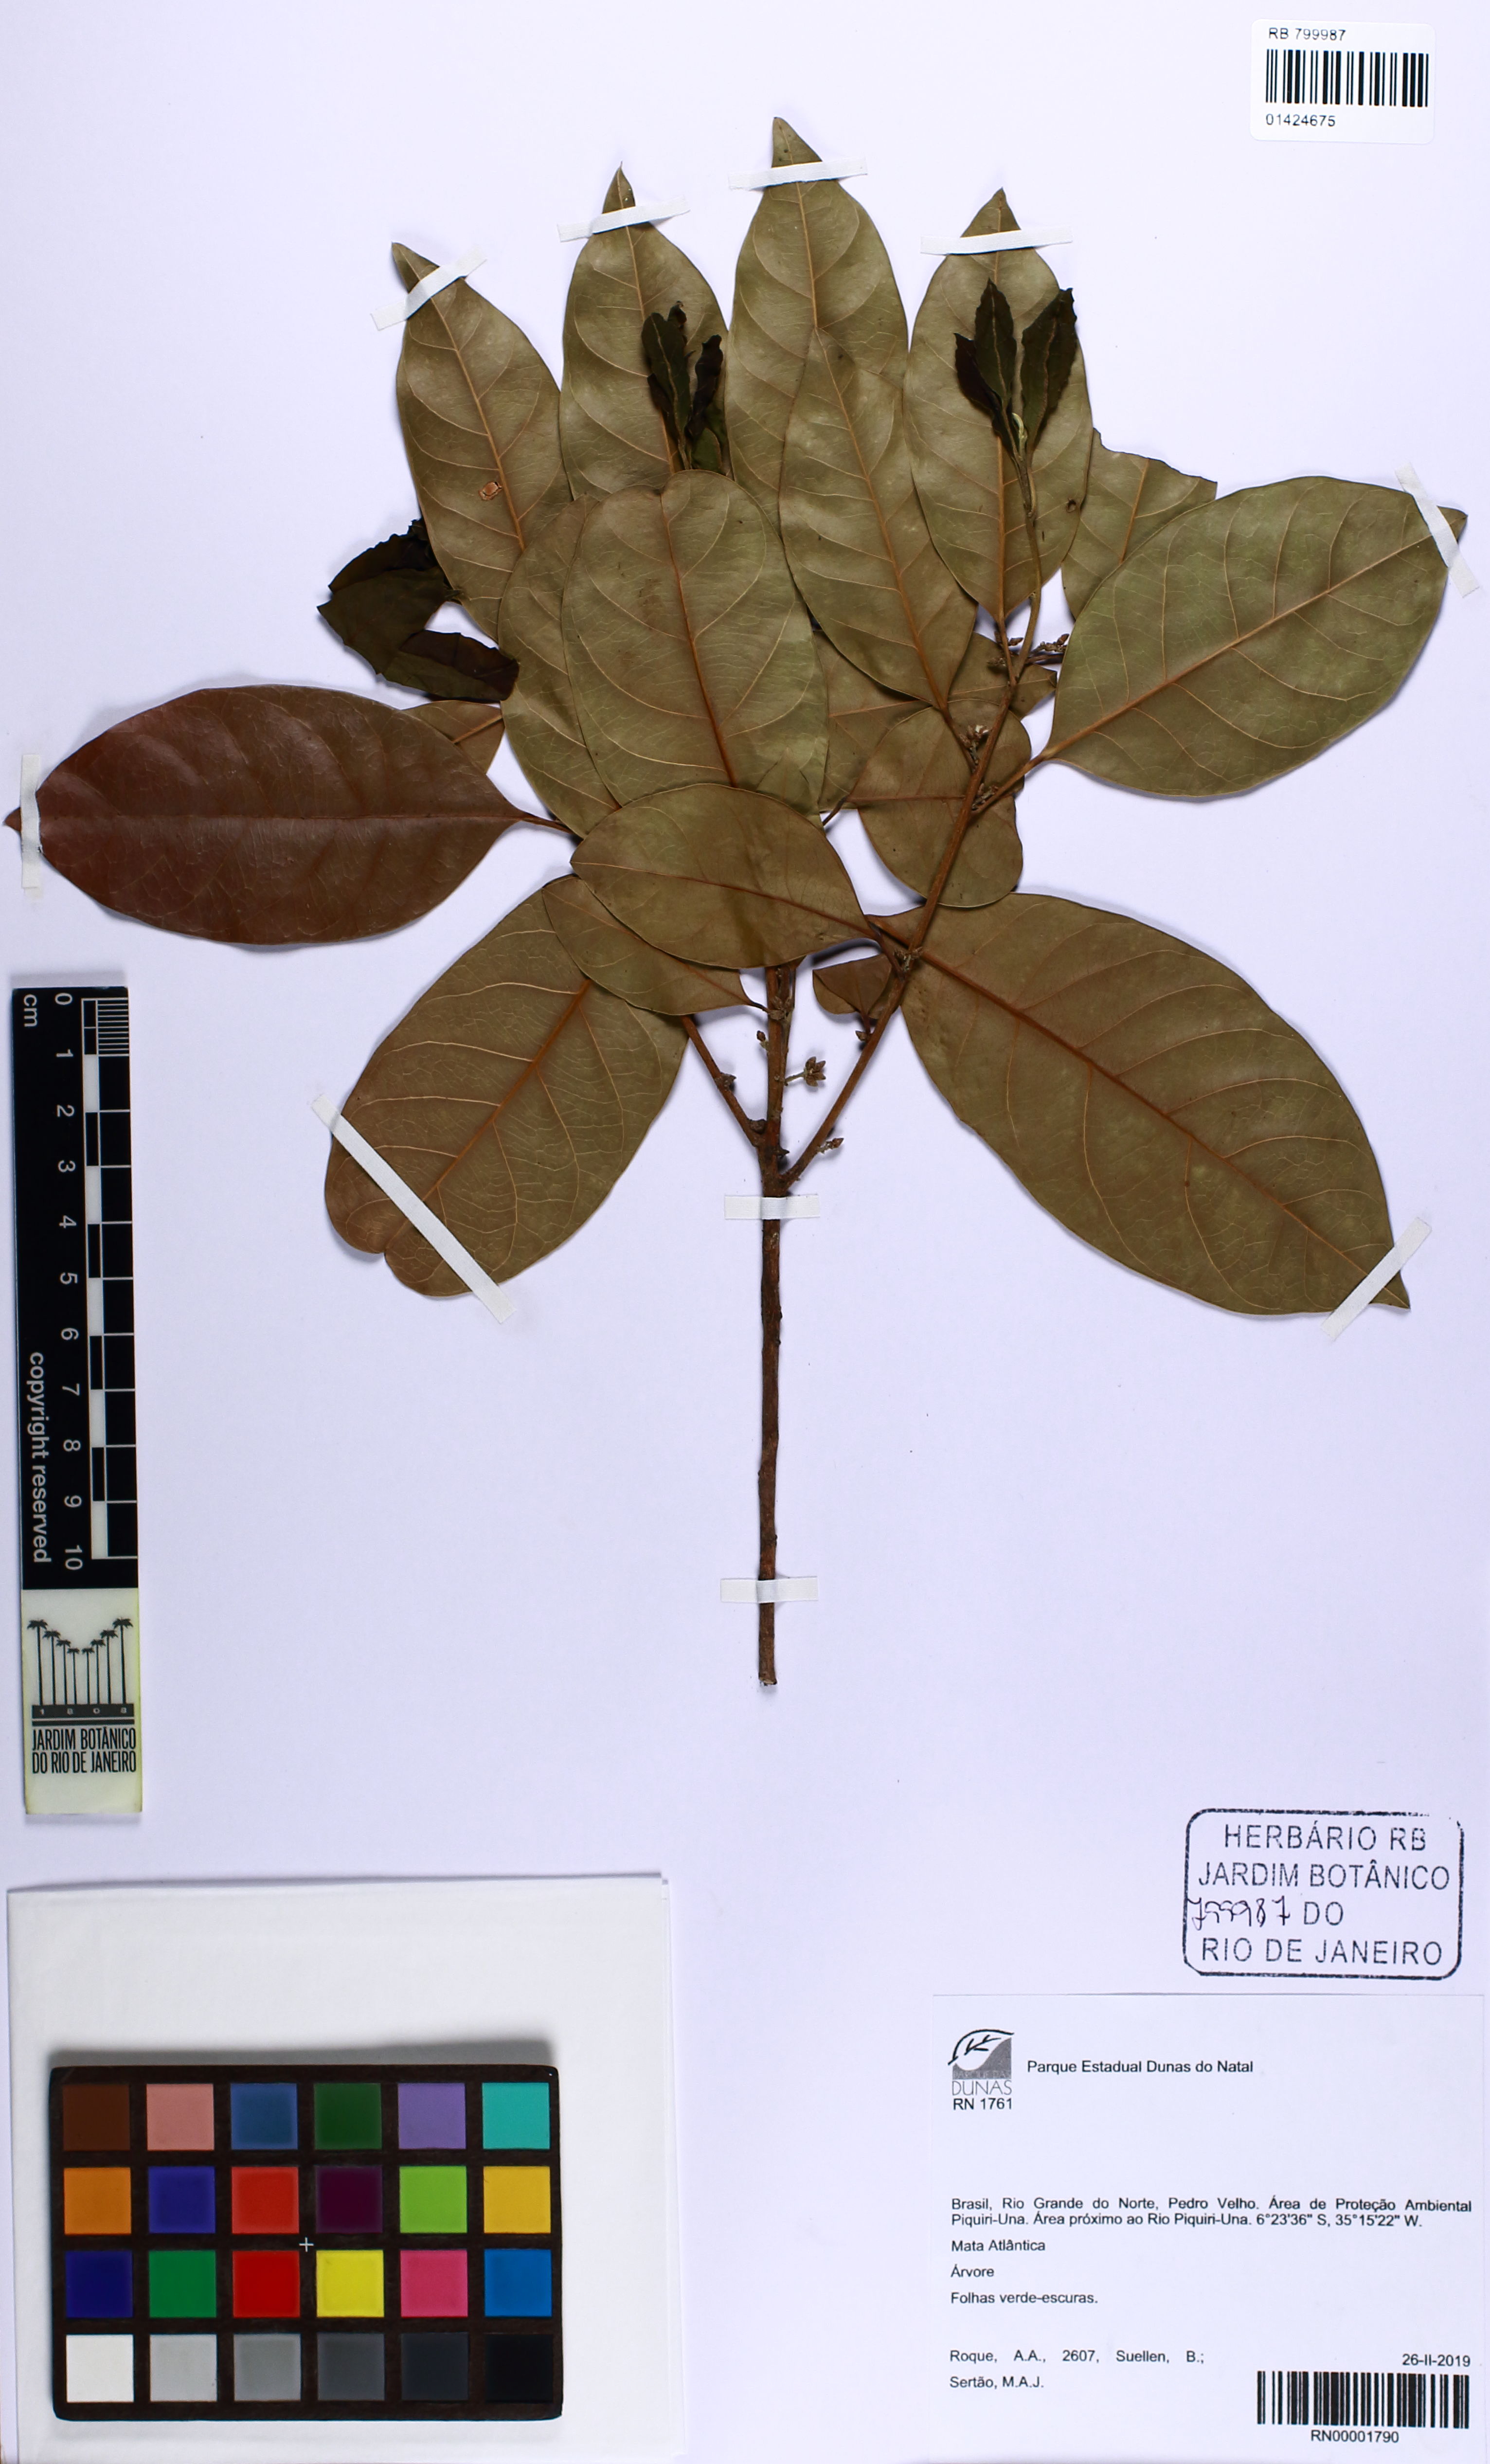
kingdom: Plantae
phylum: Tracheophyta
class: Magnoliopsida
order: Malpighiales
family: Peraceae
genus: Pogonophora
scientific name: Pogonophora schomburgkiana
